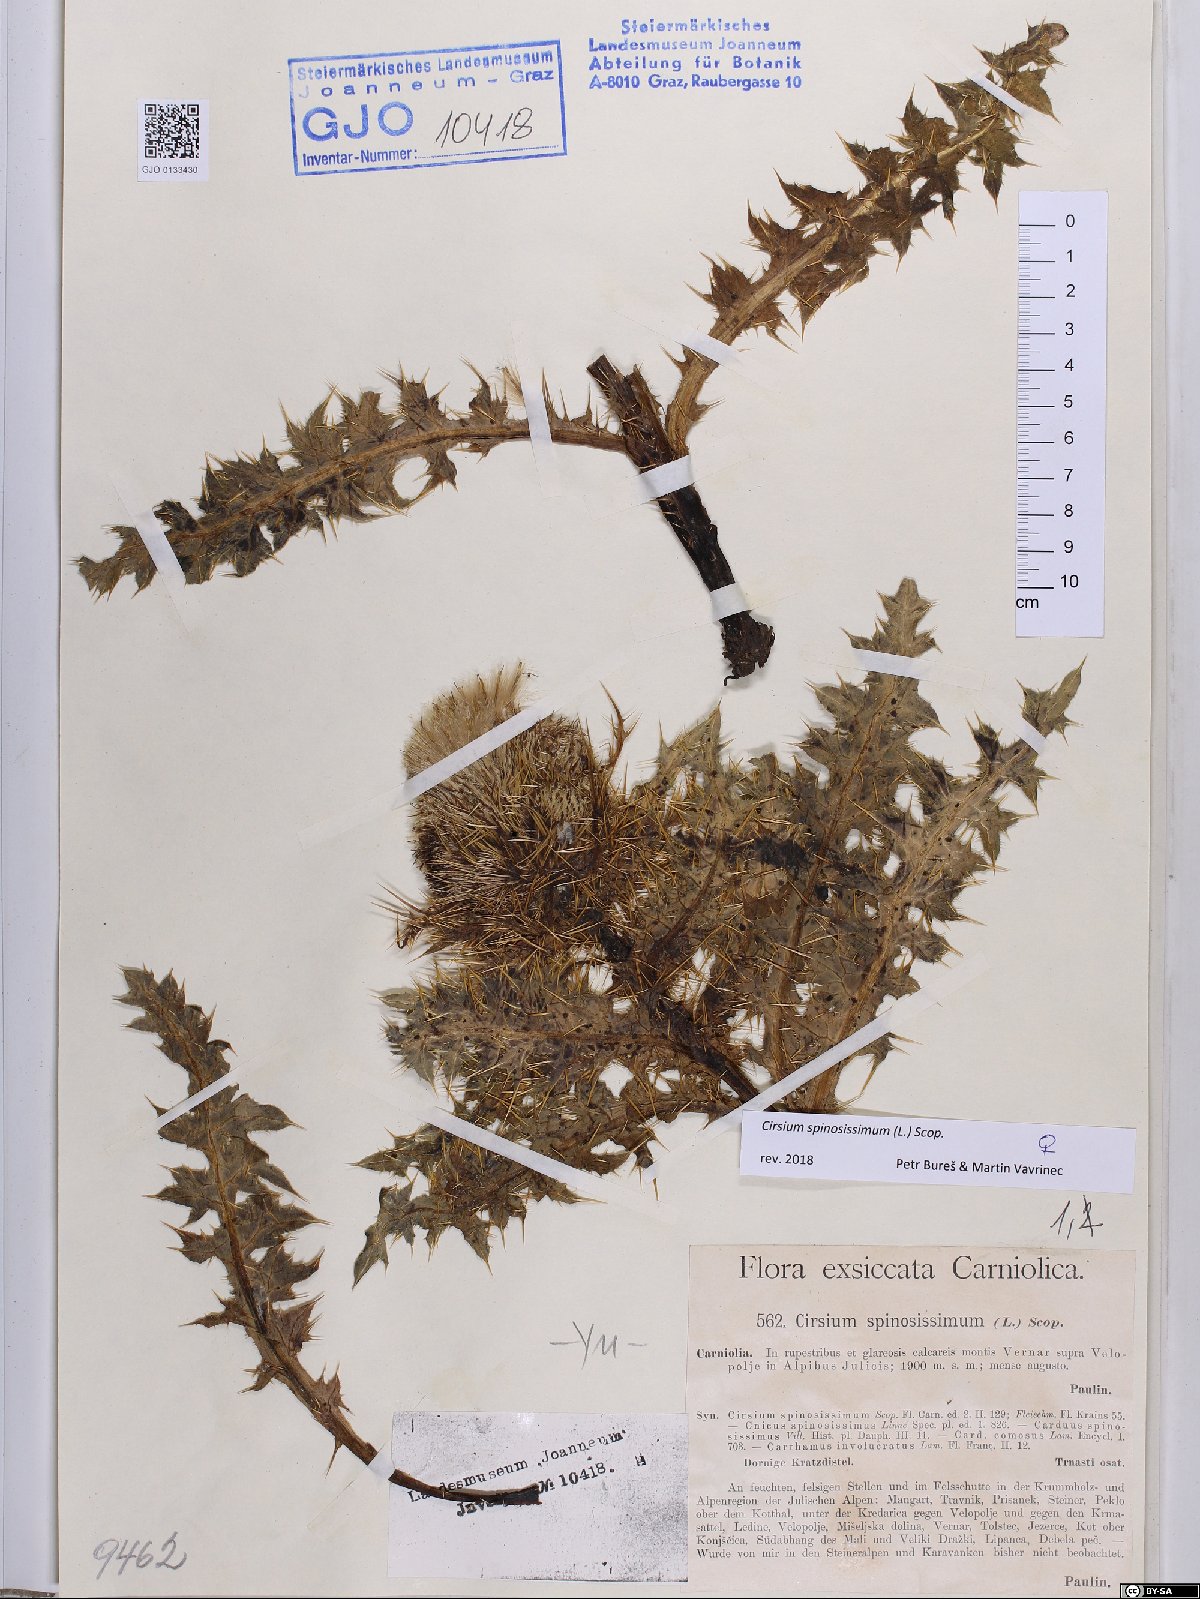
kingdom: Plantae
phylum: Tracheophyta
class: Magnoliopsida
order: Asterales
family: Asteraceae
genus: Cirsium
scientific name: Cirsium spinosissimum
